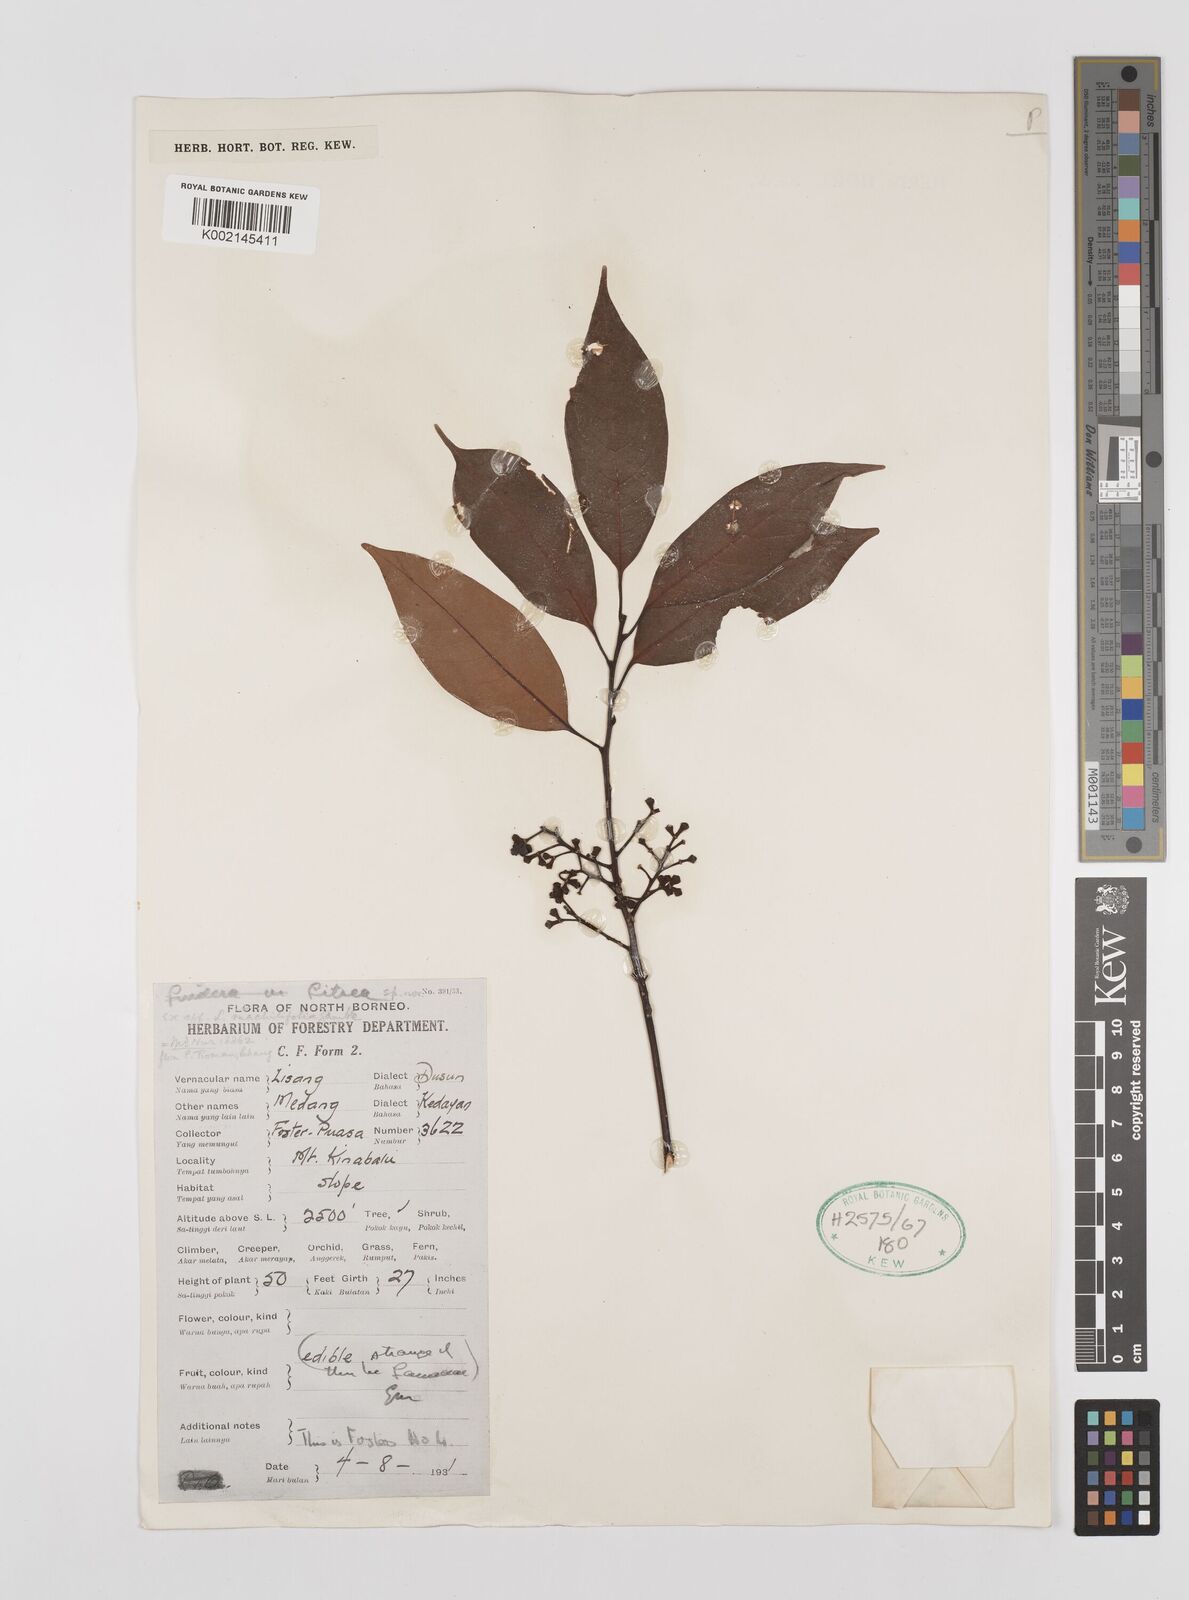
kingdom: Plantae
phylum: Tracheophyta
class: Magnoliopsida
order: Laurales
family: Lauraceae
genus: Litsea
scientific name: Litsea
